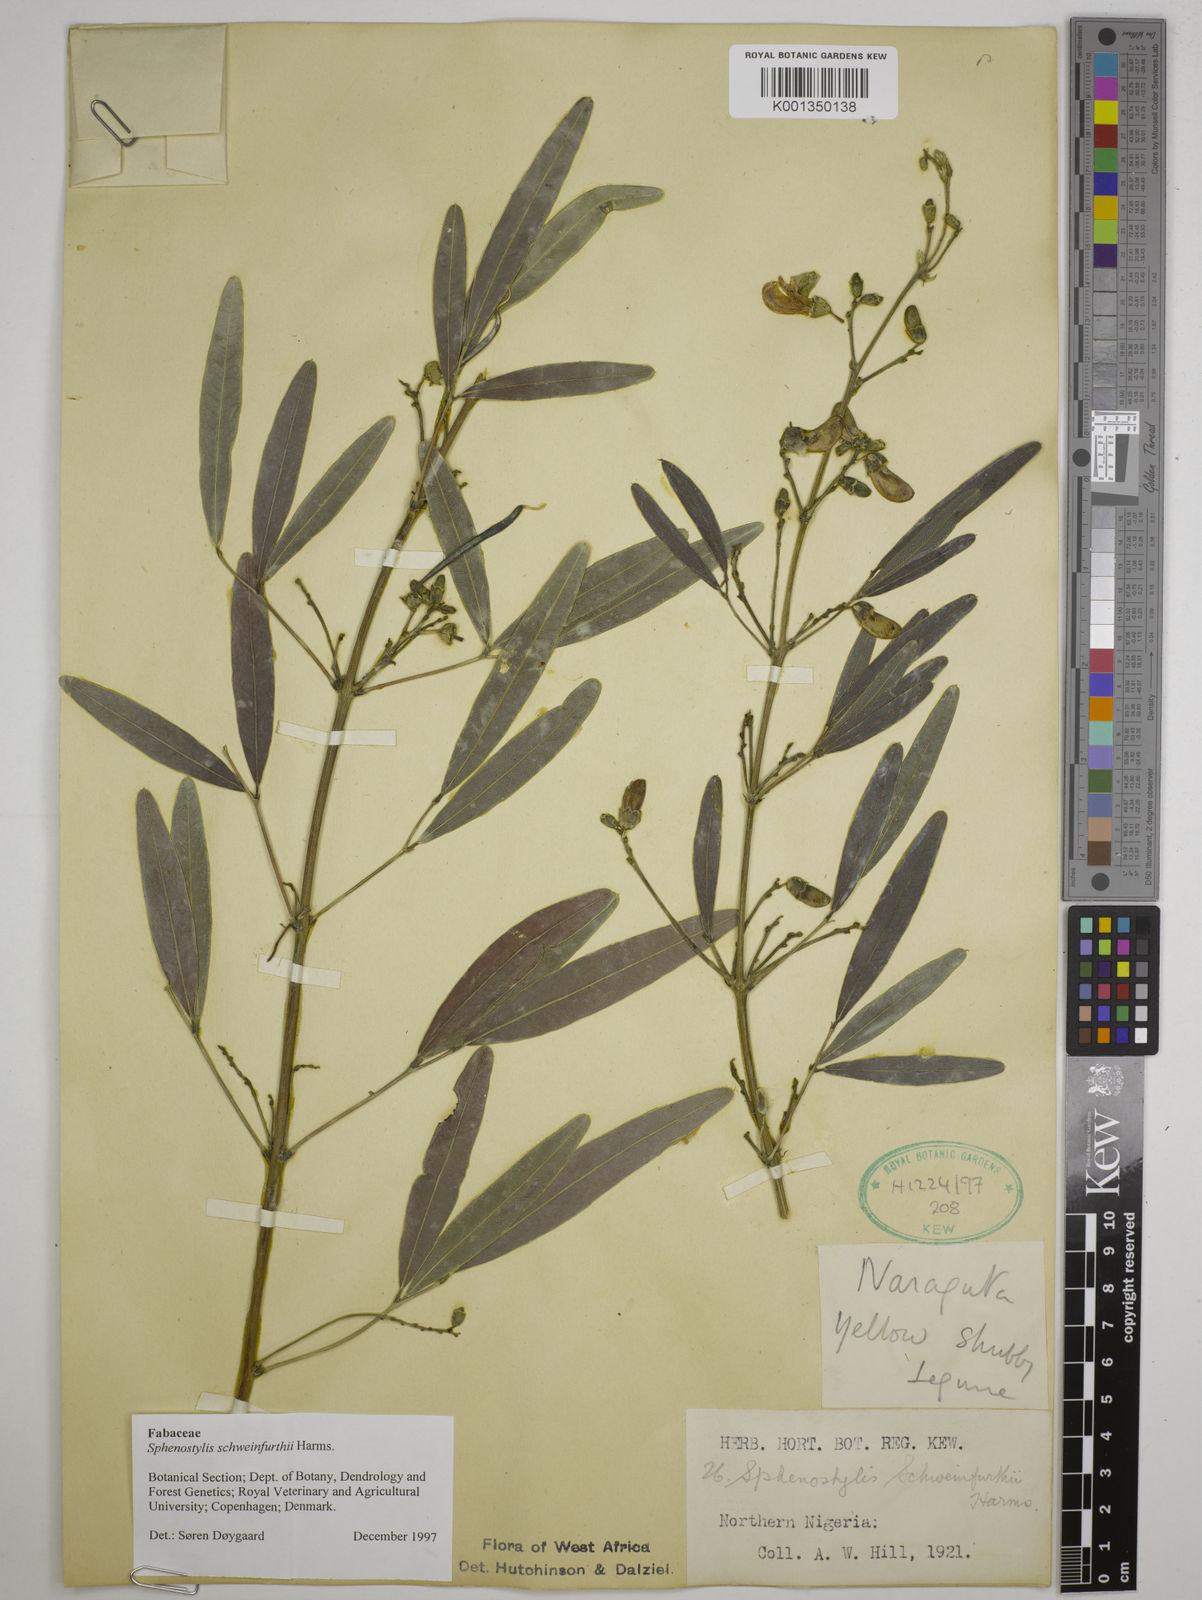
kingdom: Plantae
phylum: Tracheophyta
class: Magnoliopsida
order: Fabales
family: Fabaceae
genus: Sphenostylis
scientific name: Sphenostylis schweinfurthii
